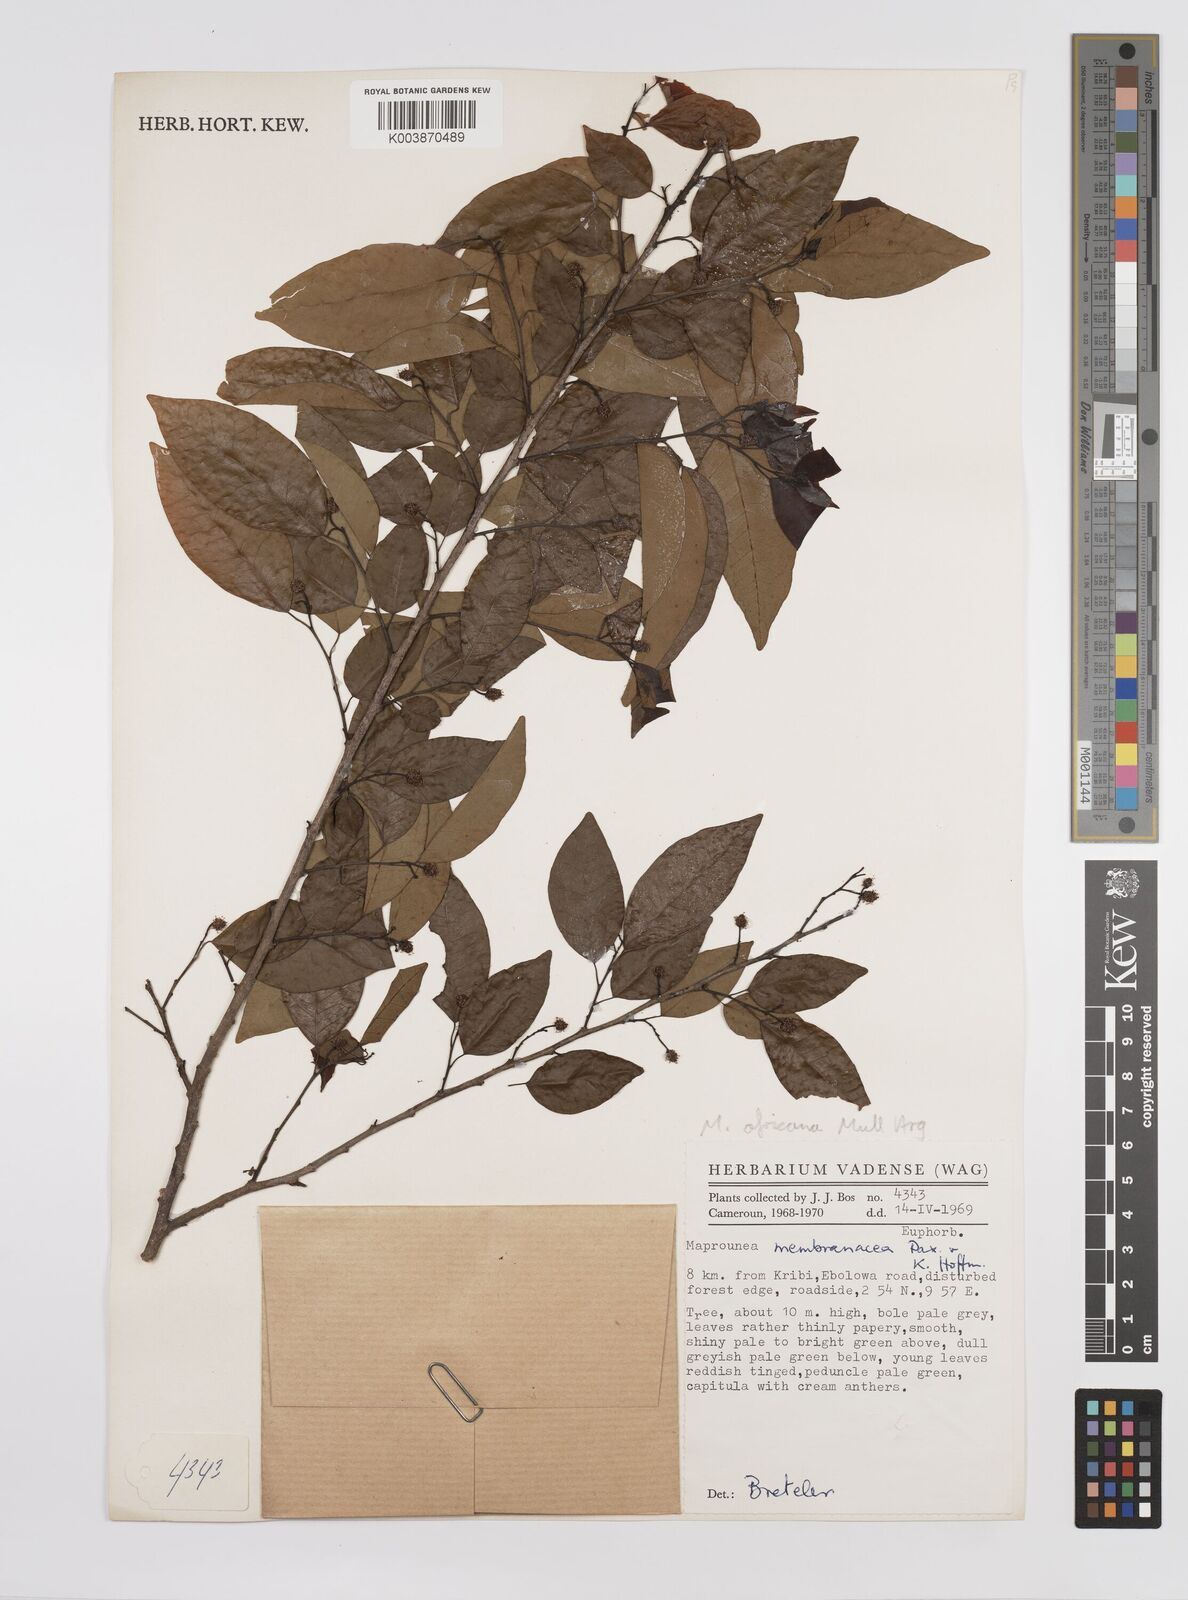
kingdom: Plantae
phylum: Tracheophyta
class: Magnoliopsida
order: Malpighiales
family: Euphorbiaceae
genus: Maprounea
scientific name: Maprounea membranacea
